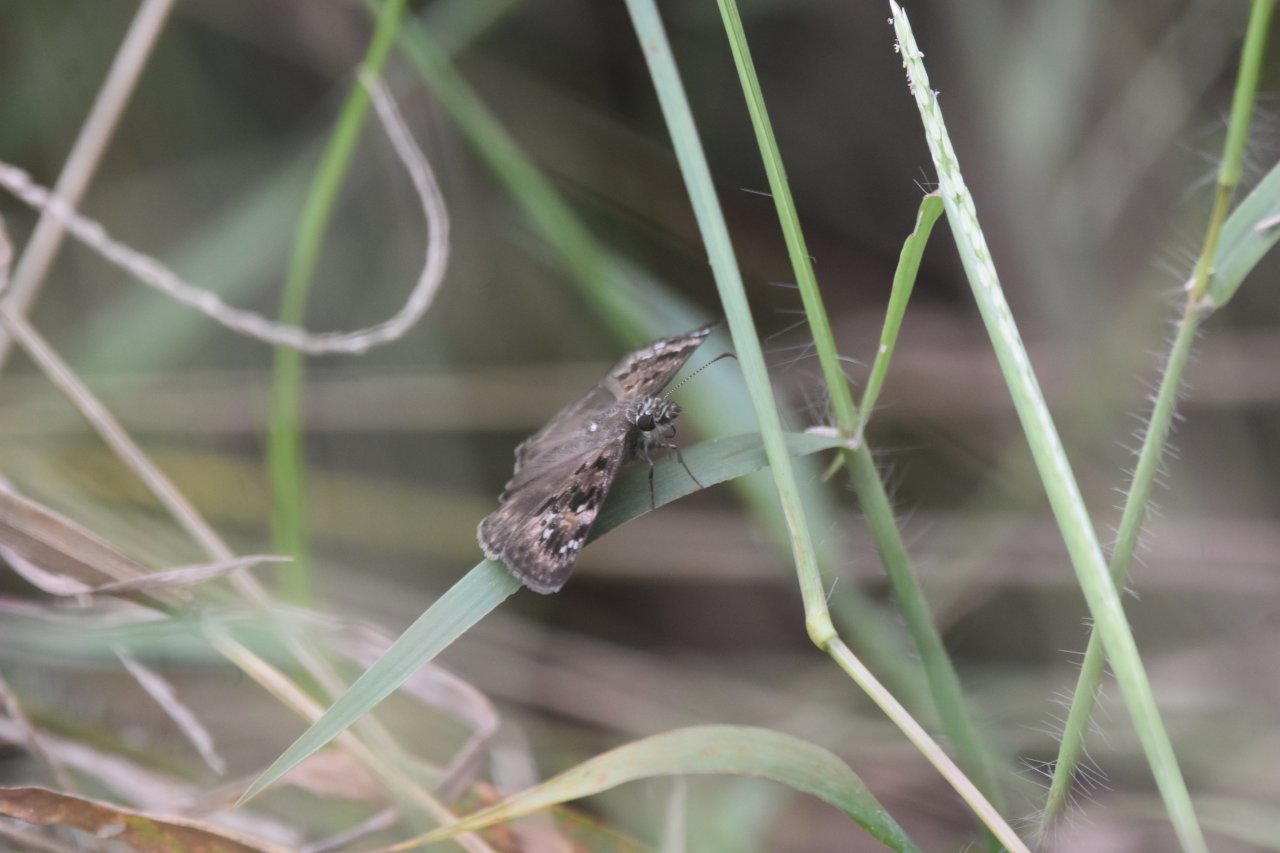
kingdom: Animalia
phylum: Arthropoda
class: Insecta
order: Lepidoptera
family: Hesperiidae
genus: Gesta
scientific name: Gesta
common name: Horace's Duskywing
